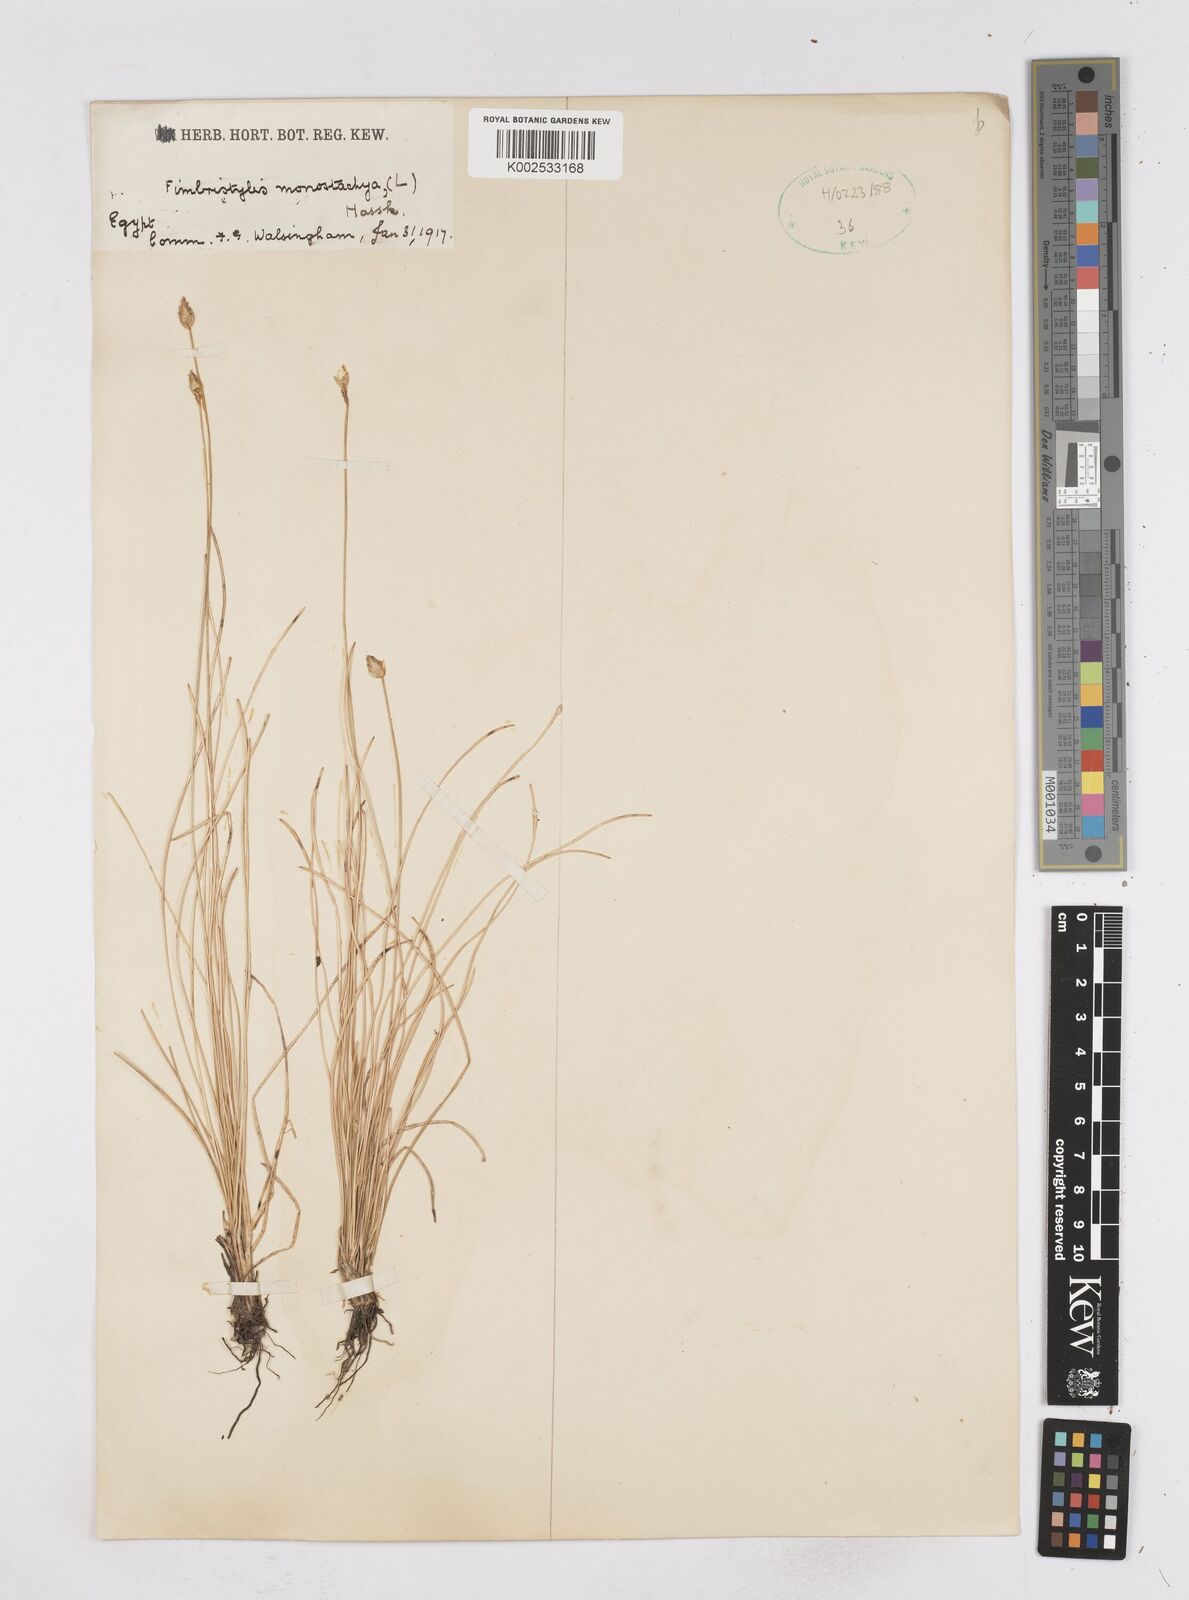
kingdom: Plantae
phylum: Tracheophyta
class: Liliopsida
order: Poales
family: Cyperaceae
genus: Abildgaardia
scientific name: Abildgaardia ovata
